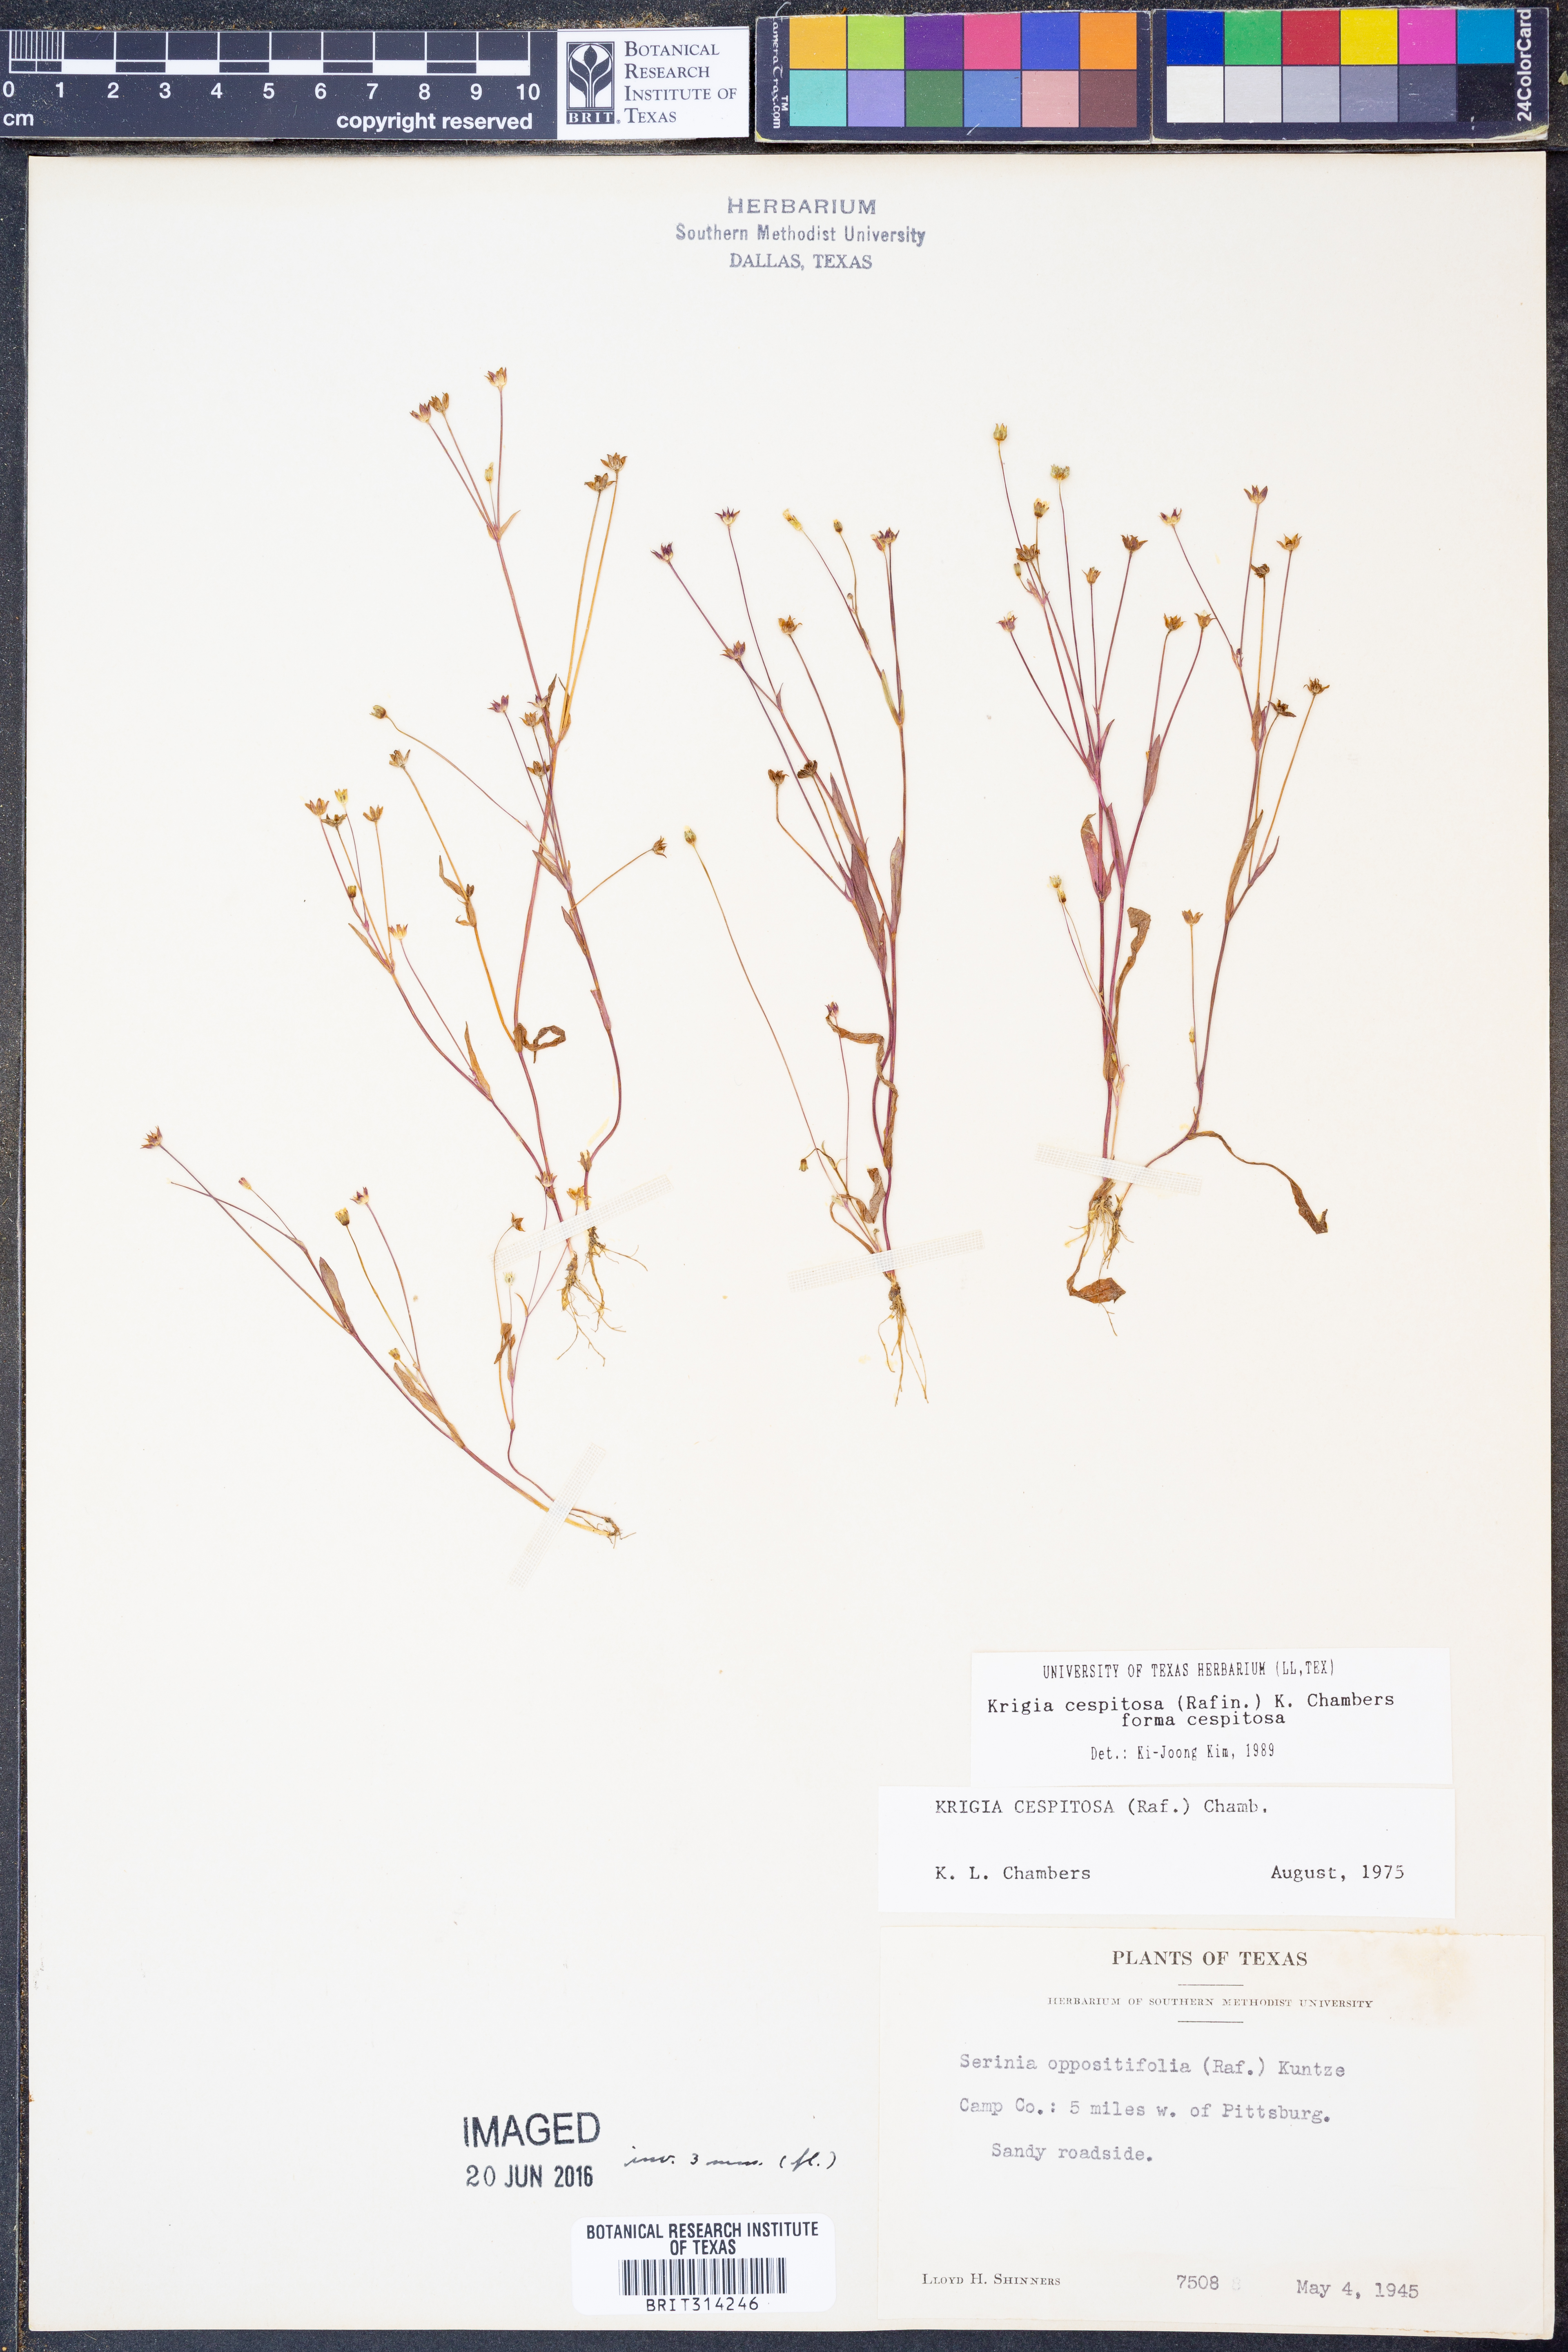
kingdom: Plantae
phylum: Tracheophyta
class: Magnoliopsida
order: Asterales
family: Asteraceae
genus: Krigia
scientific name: Krigia cespitosa
